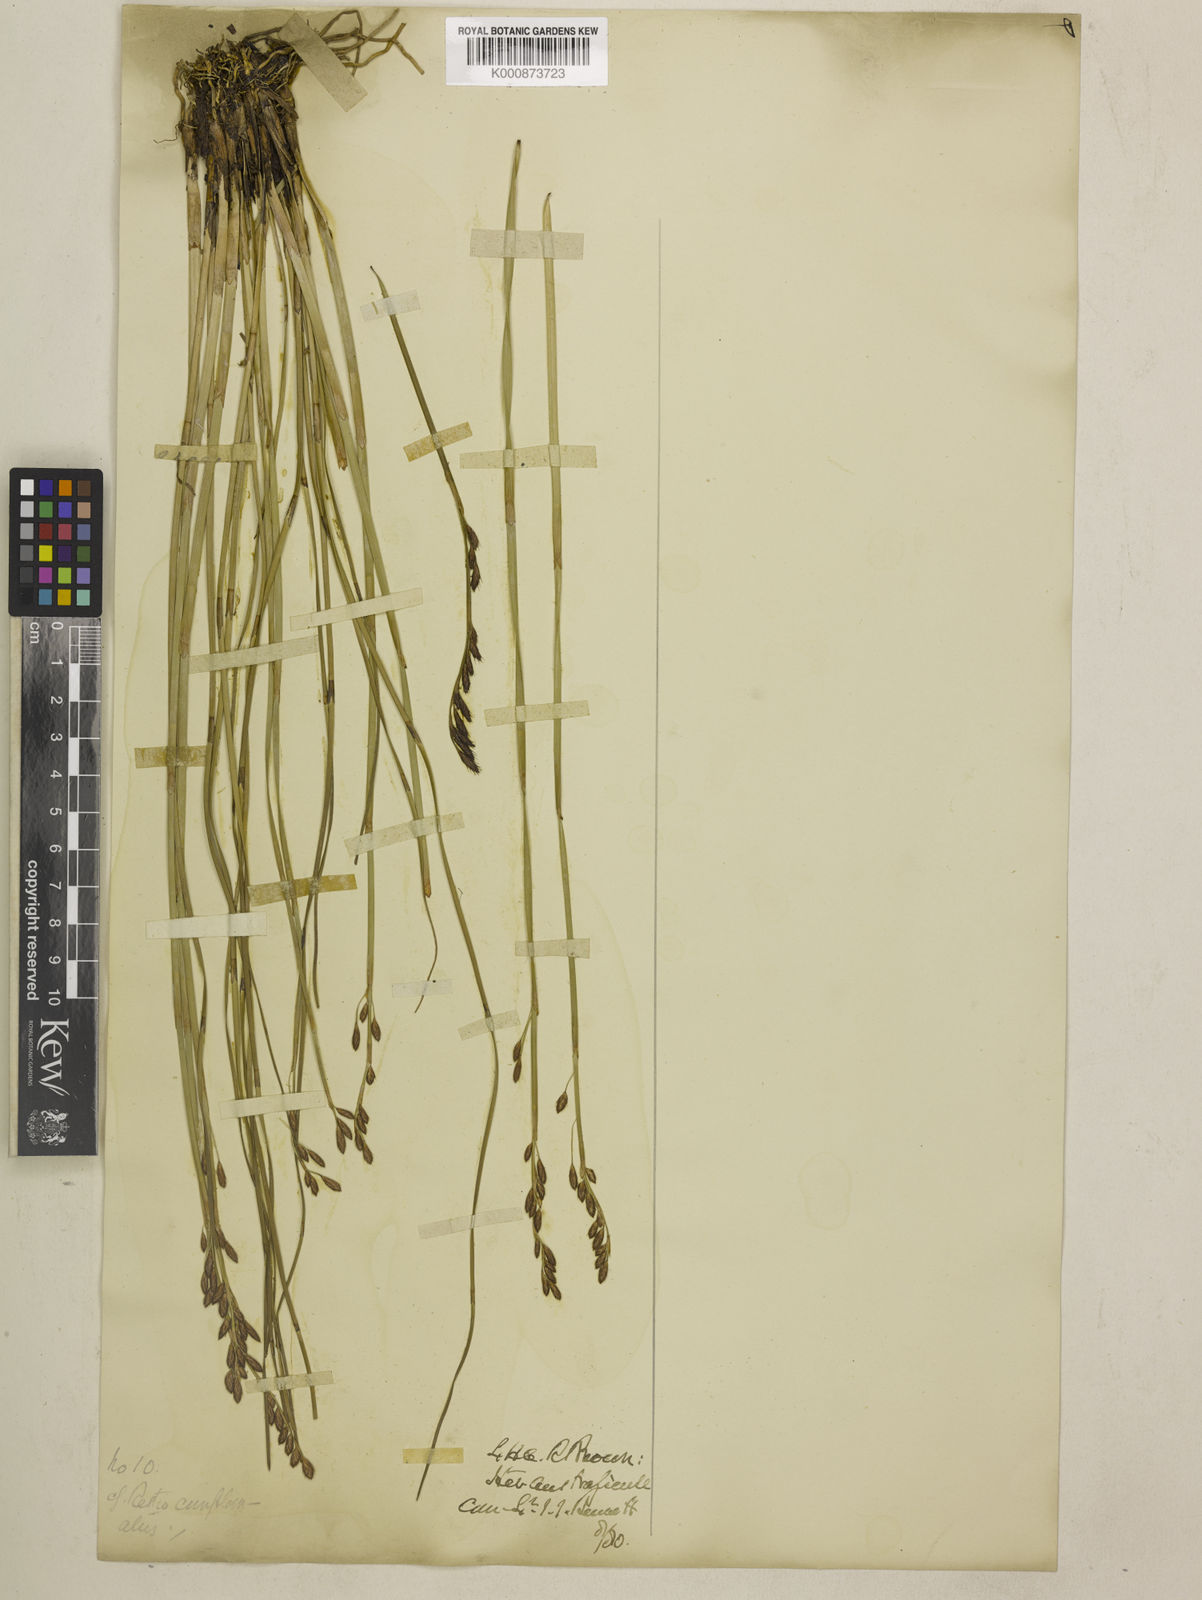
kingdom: Plantae
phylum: Tracheophyta
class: Liliopsida
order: Poales
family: Restionaceae
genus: Eurychorda
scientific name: Eurychorda complanata
